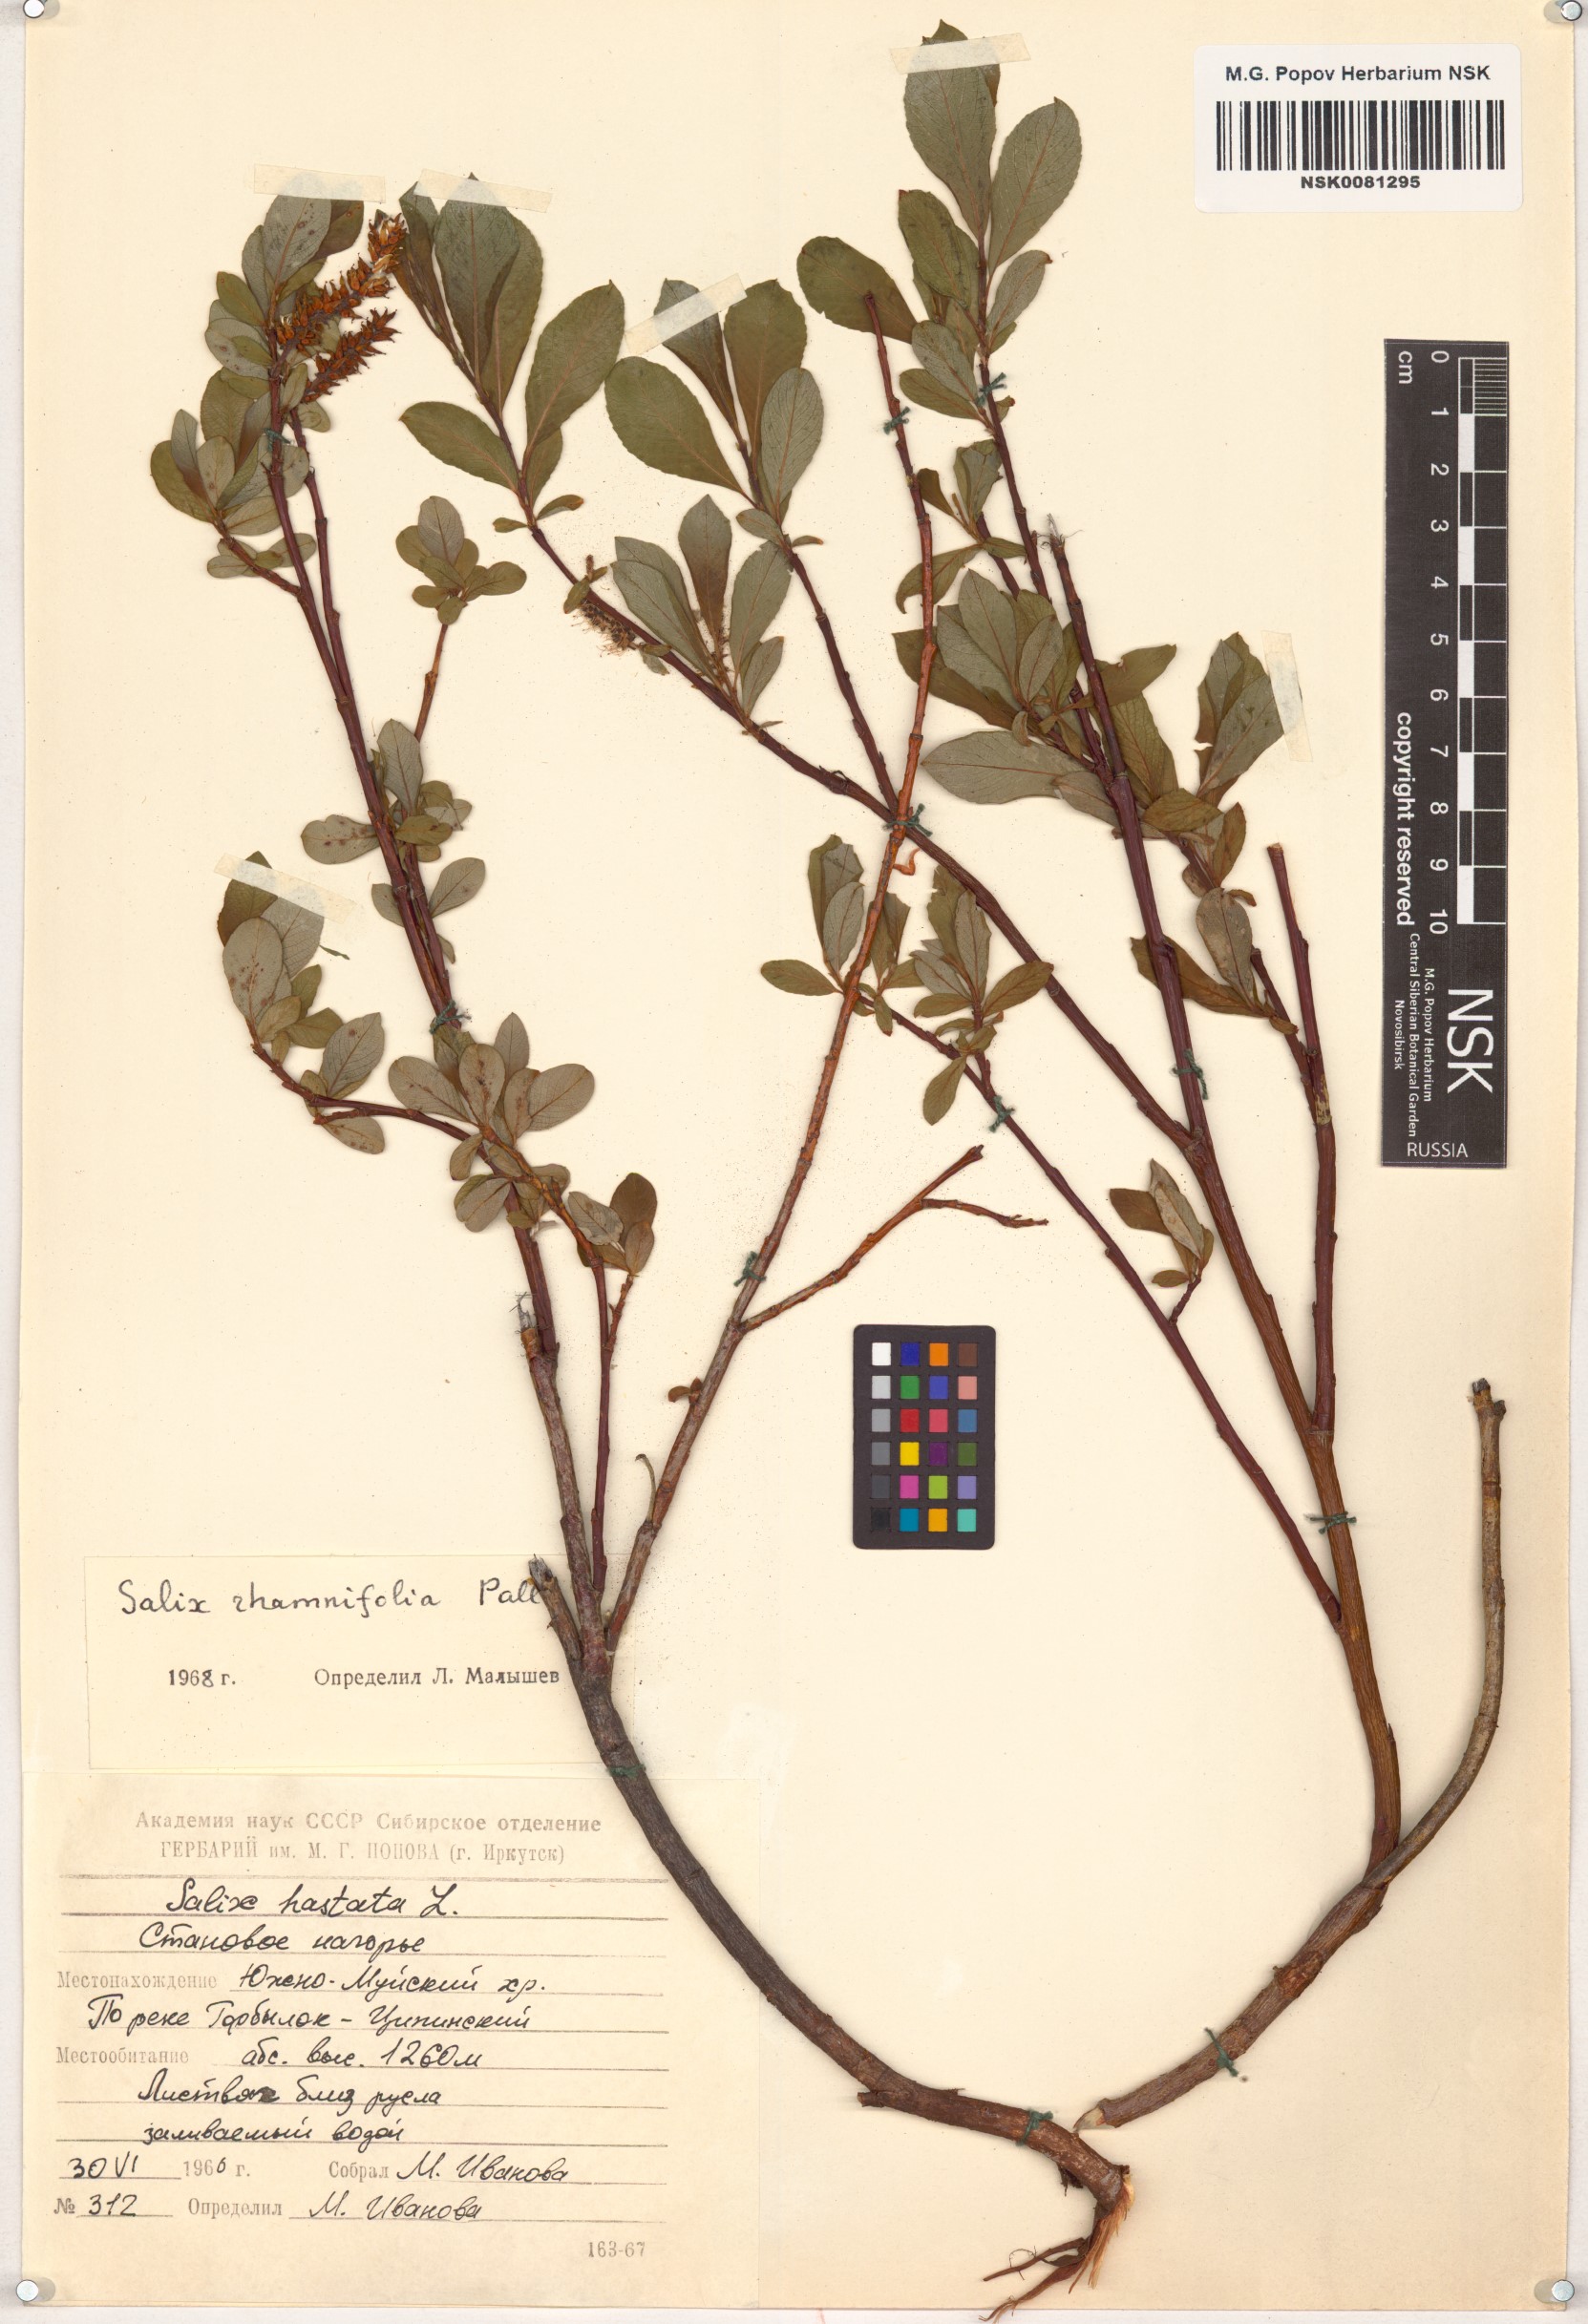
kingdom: Plantae
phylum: Tracheophyta
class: Magnoliopsida
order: Malpighiales
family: Salicaceae
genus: Salix
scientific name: Salix rhamnifolia
